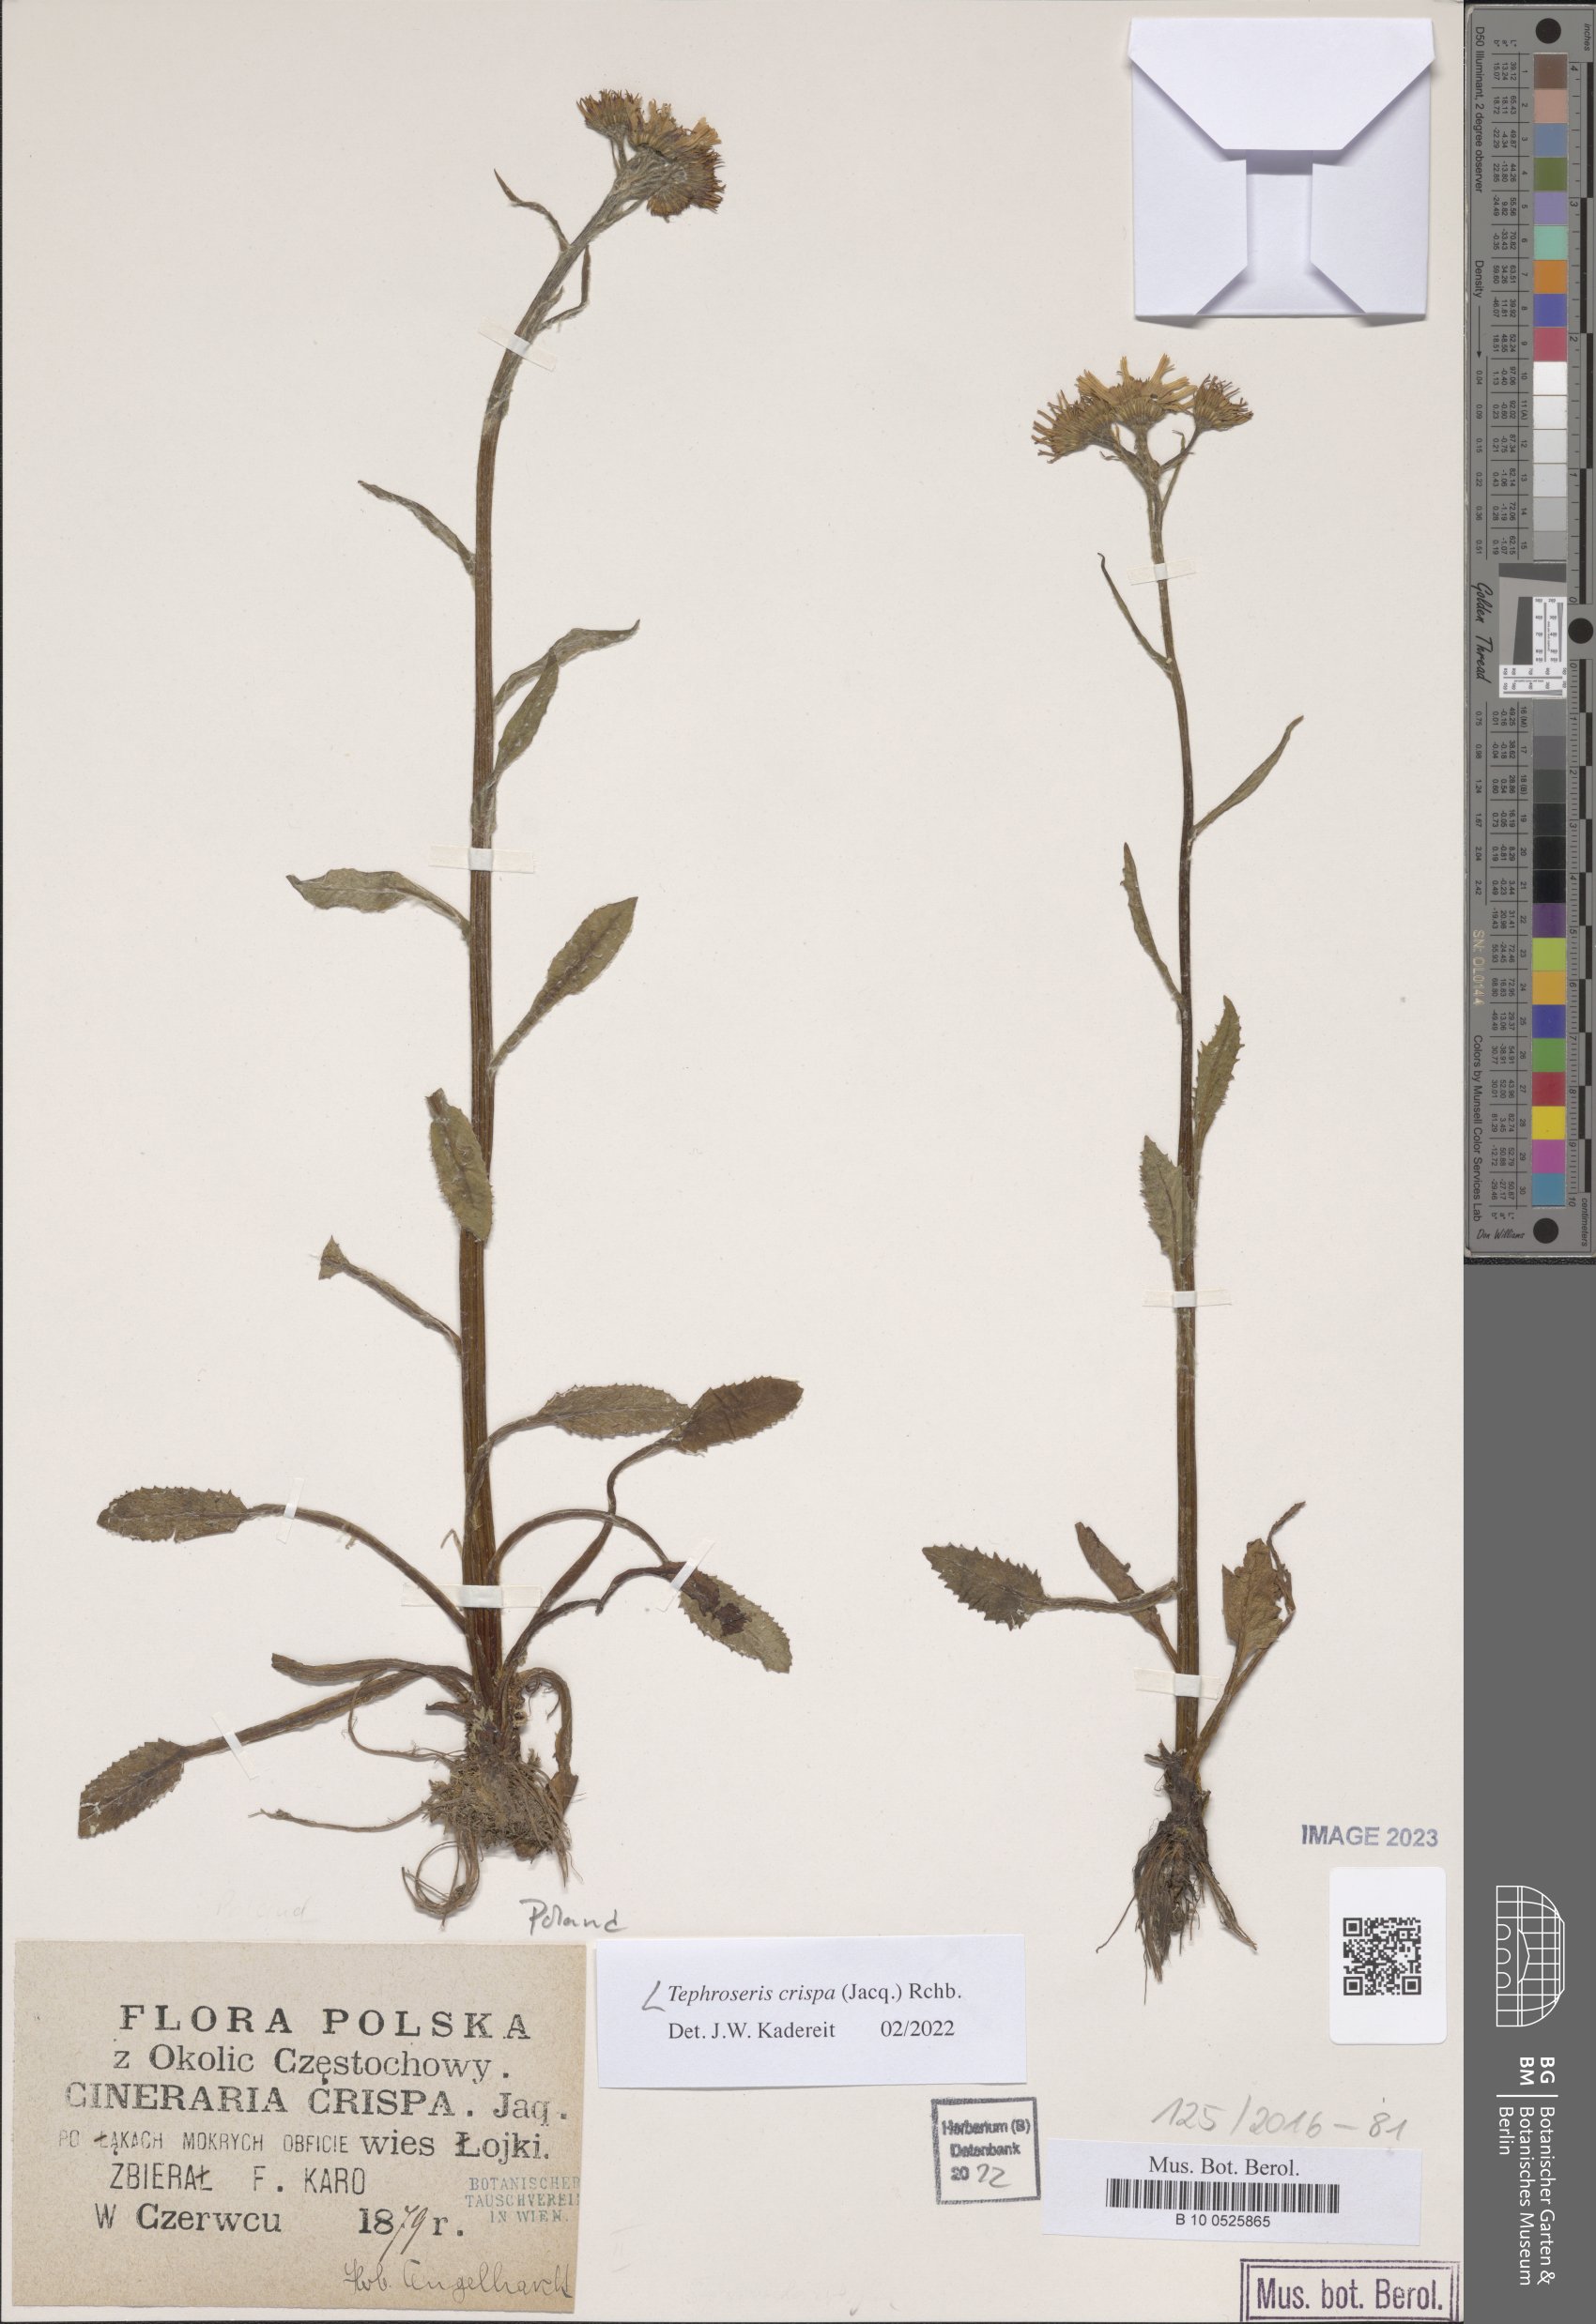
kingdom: Plantae
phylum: Tracheophyta
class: Magnoliopsida
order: Asterales
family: Asteraceae
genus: Tephroseris
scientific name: Tephroseris crispa
